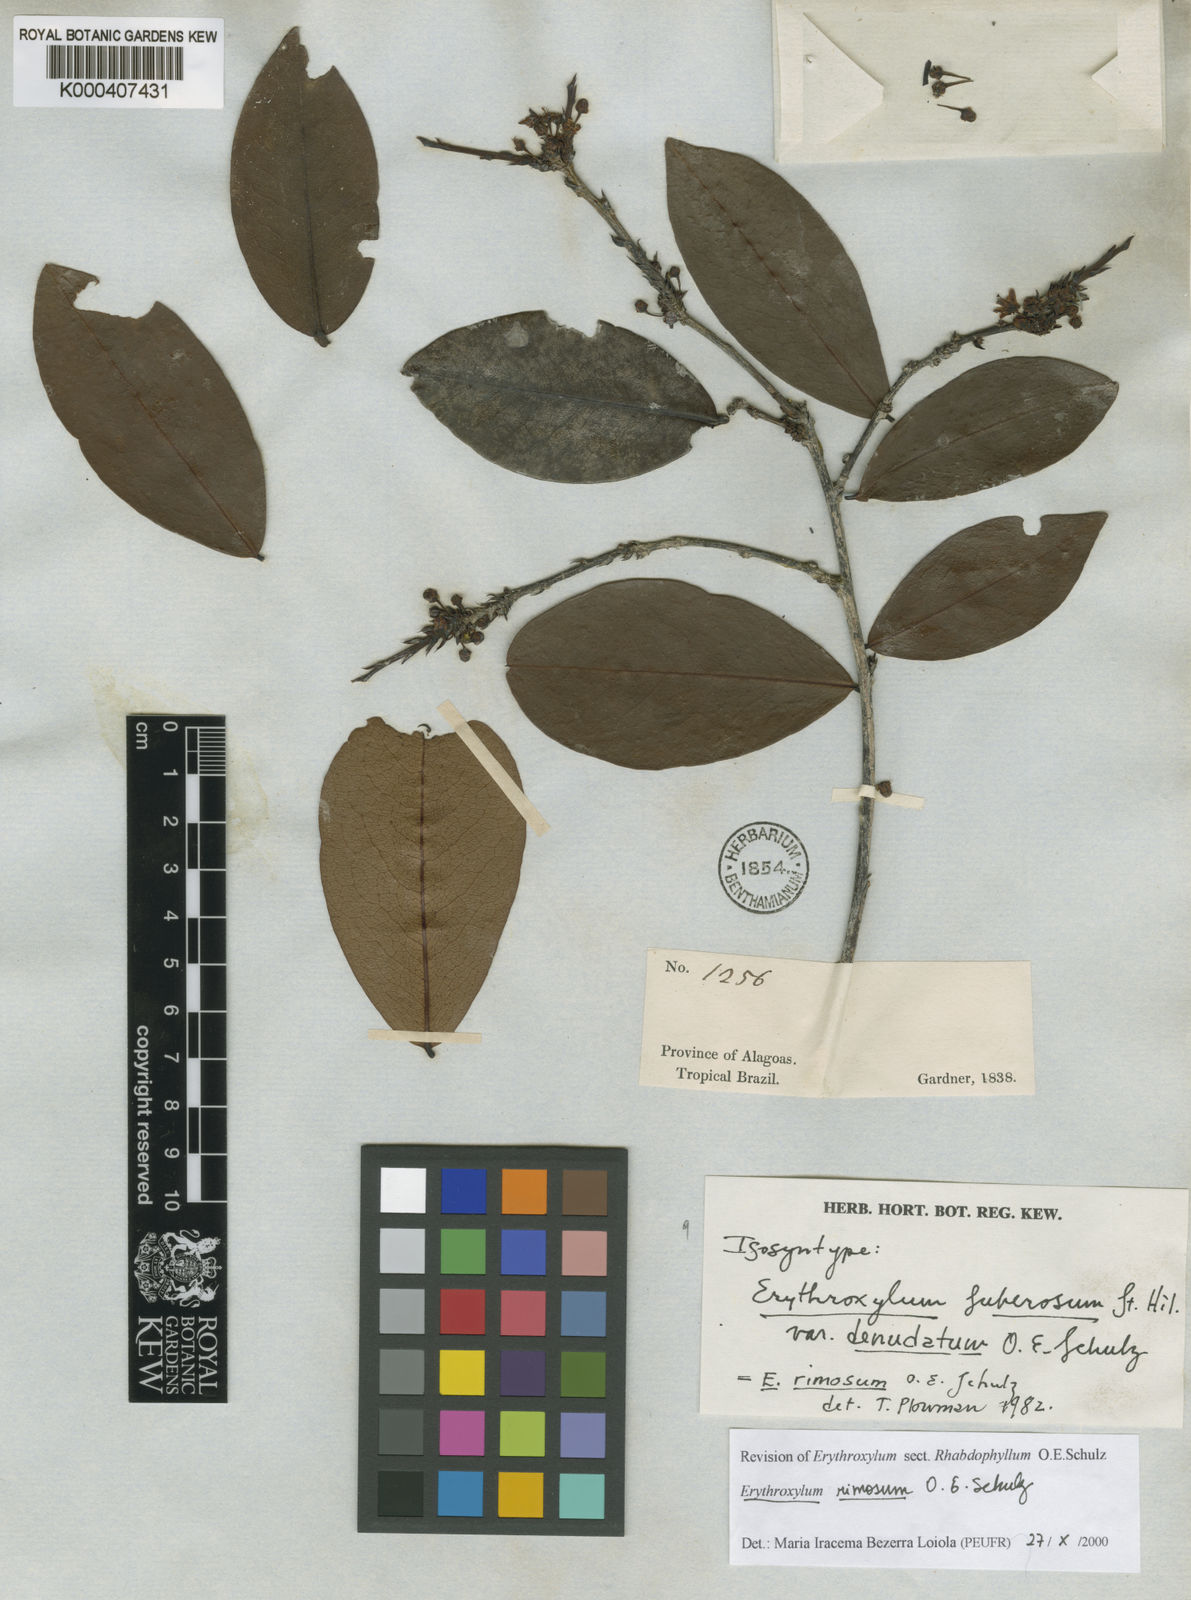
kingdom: Plantae
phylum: Tracheophyta
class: Magnoliopsida
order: Malpighiales
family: Erythroxylaceae
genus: Erythroxylum
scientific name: Erythroxylum rimosum
